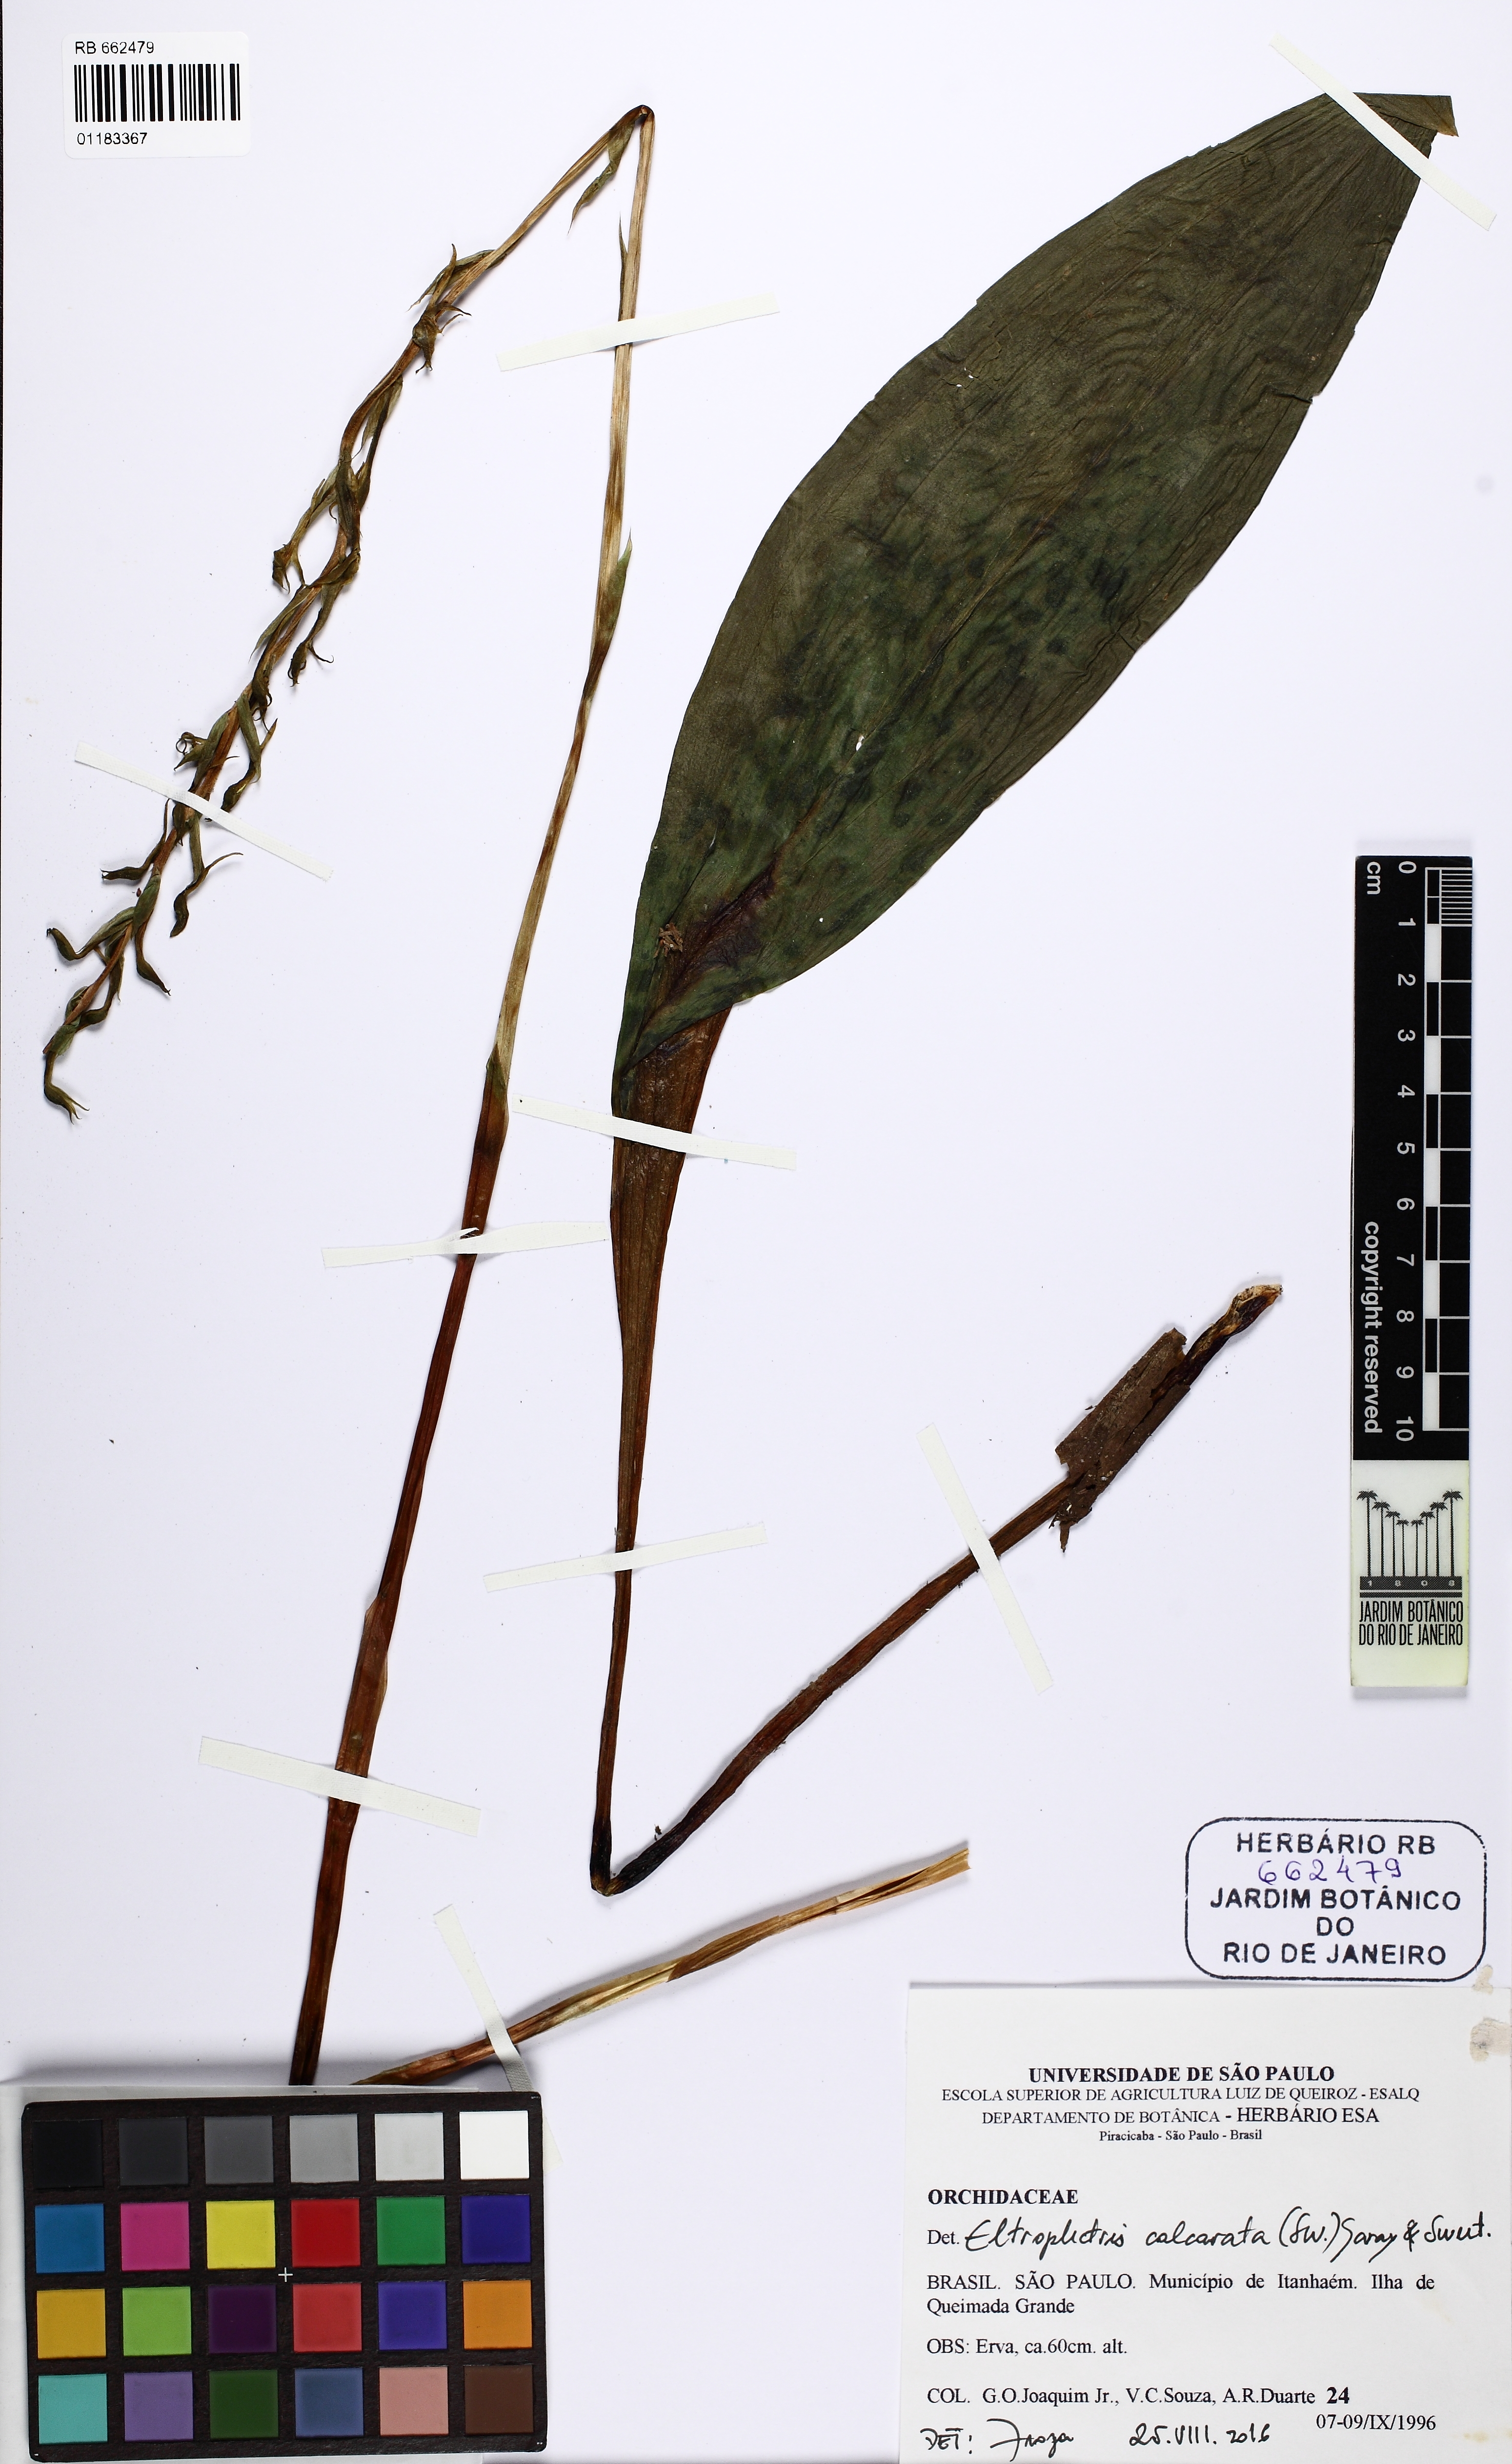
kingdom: Plantae
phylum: Tracheophyta
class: Liliopsida
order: Asparagales
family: Orchidaceae
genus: Eltroplectris
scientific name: Eltroplectris calcarata
